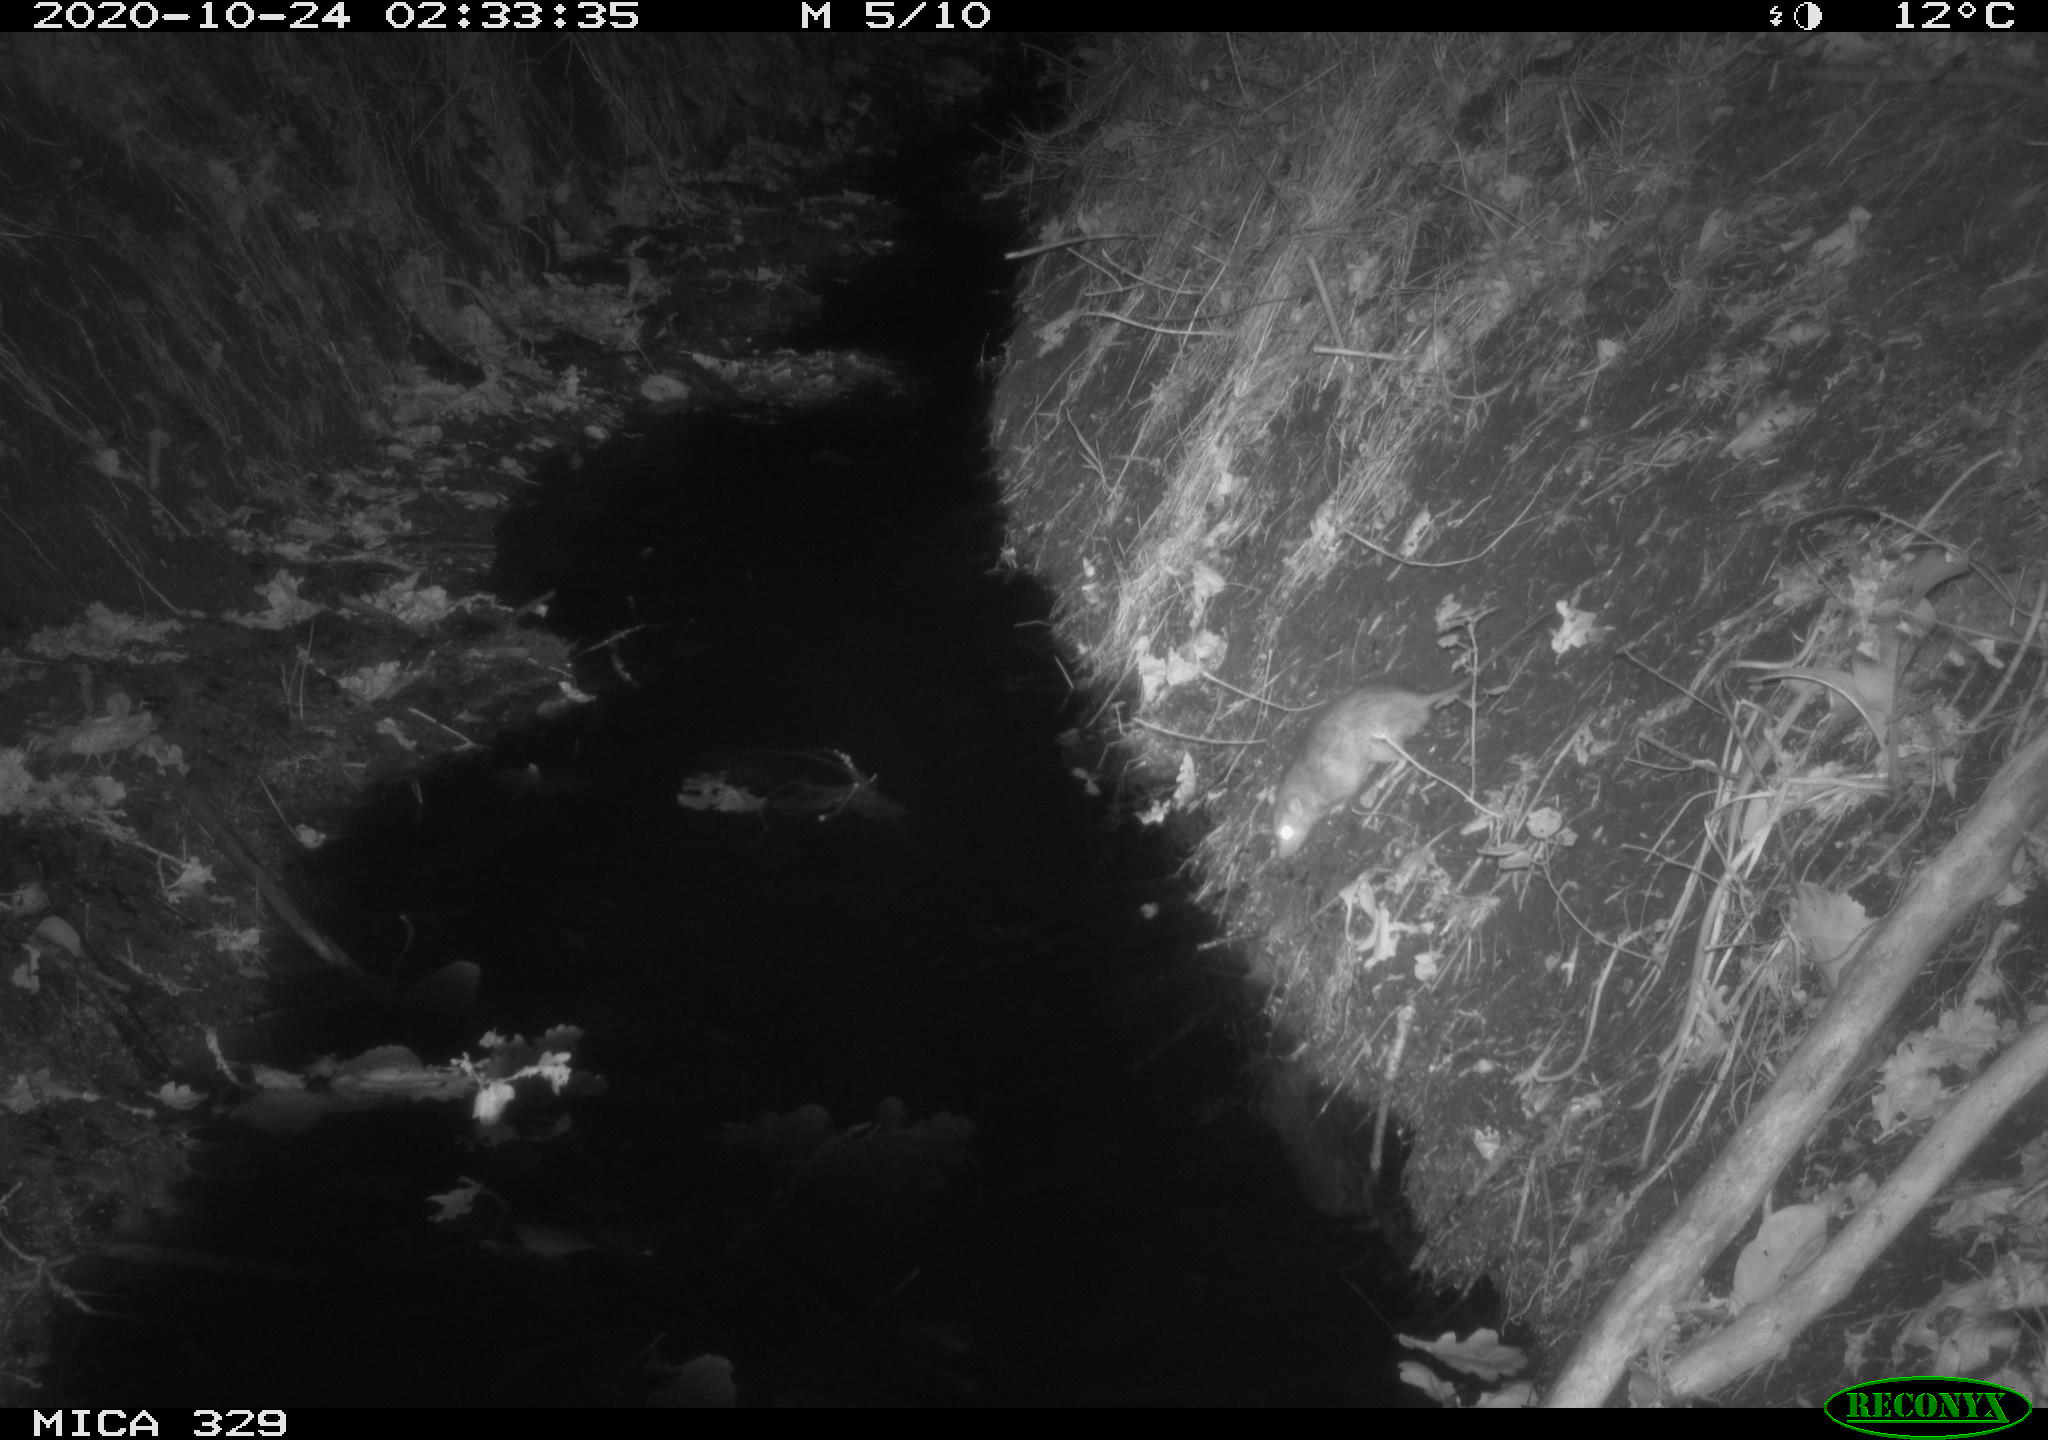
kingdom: Animalia
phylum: Chordata
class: Mammalia
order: Rodentia
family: Muridae
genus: Rattus
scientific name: Rattus norvegicus
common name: Brown rat
